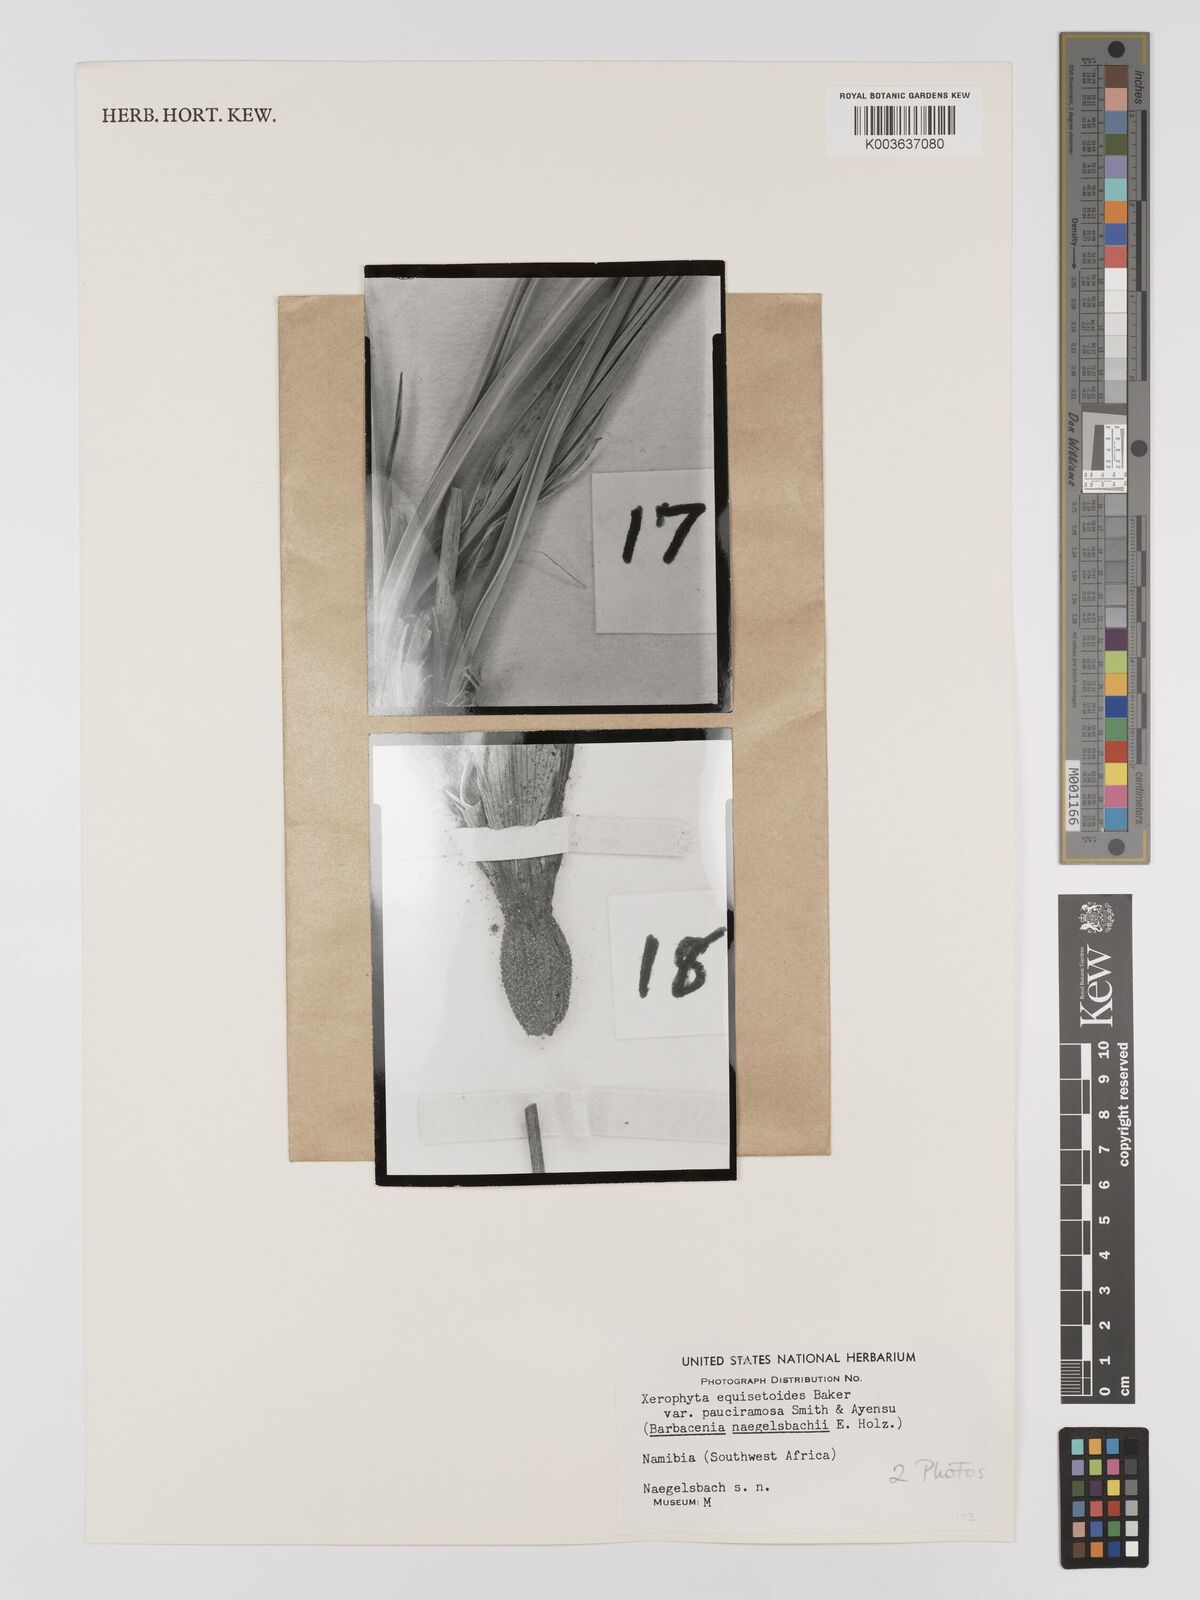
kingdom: Plantae
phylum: Tracheophyta
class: Liliopsida
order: Pandanales
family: Velloziaceae
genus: Xerophyta
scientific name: Xerophyta pauciramosa
